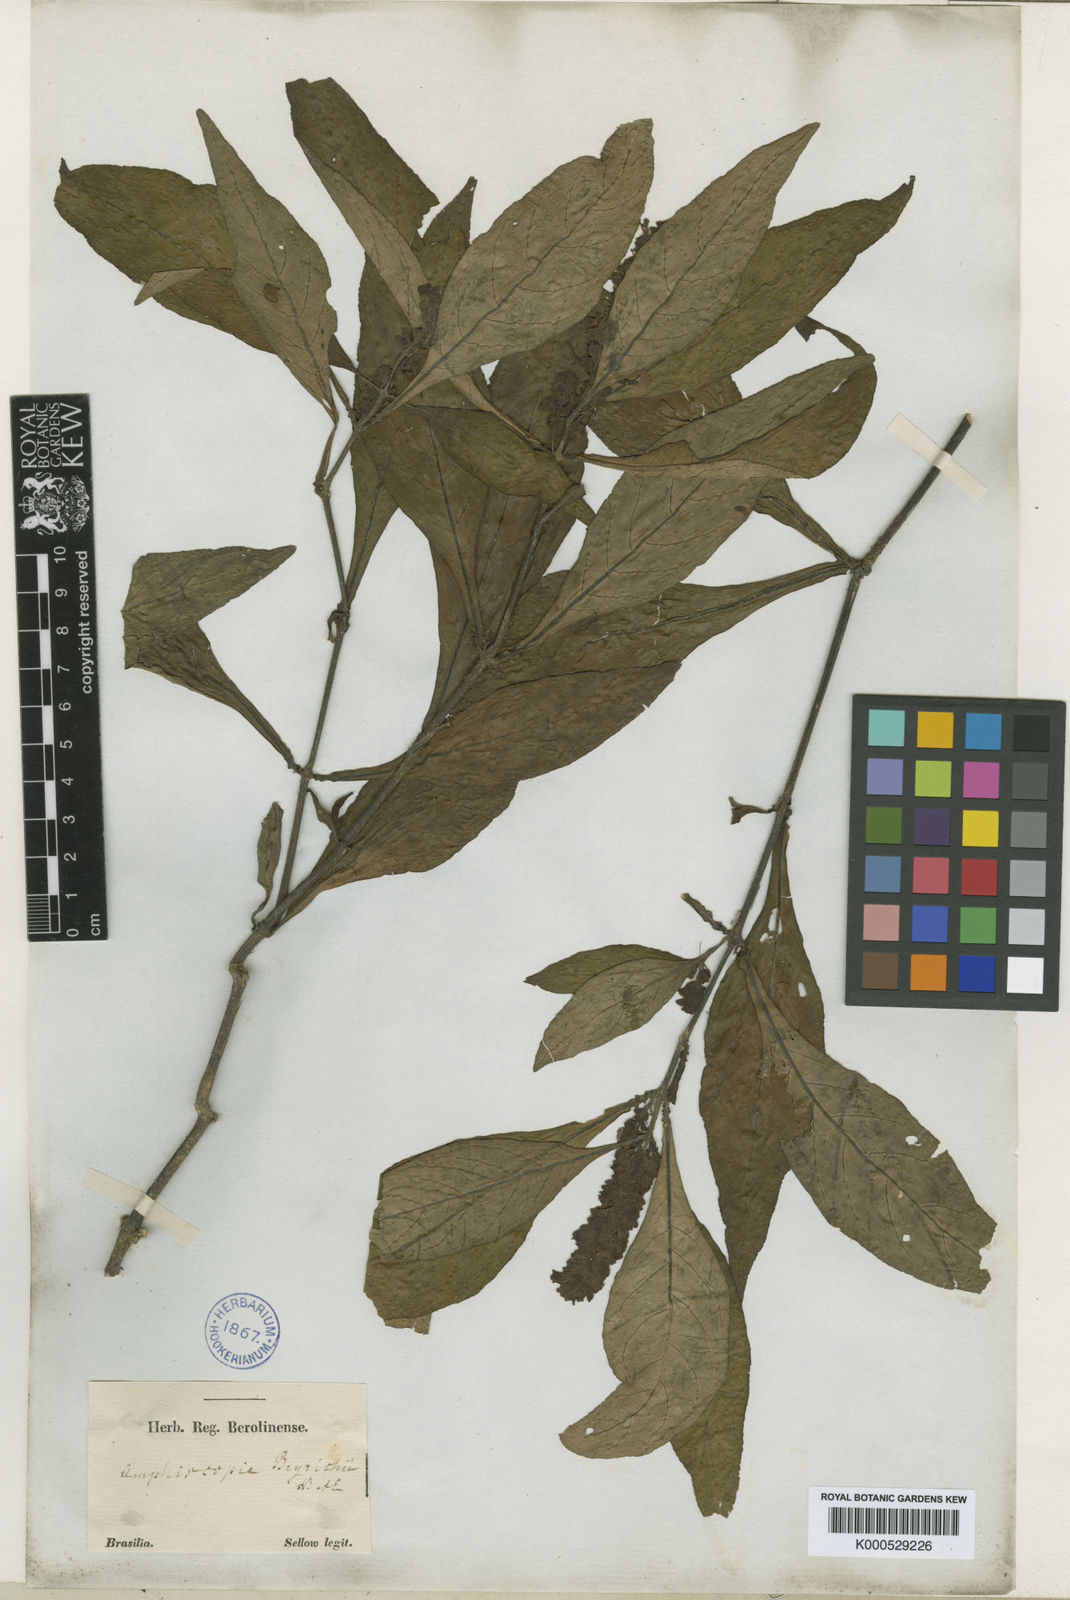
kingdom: Plantae
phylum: Tracheophyta
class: Magnoliopsida
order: Lamiales
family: Acanthaceae
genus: Dianthera
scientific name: Dianthera brasiliensis
